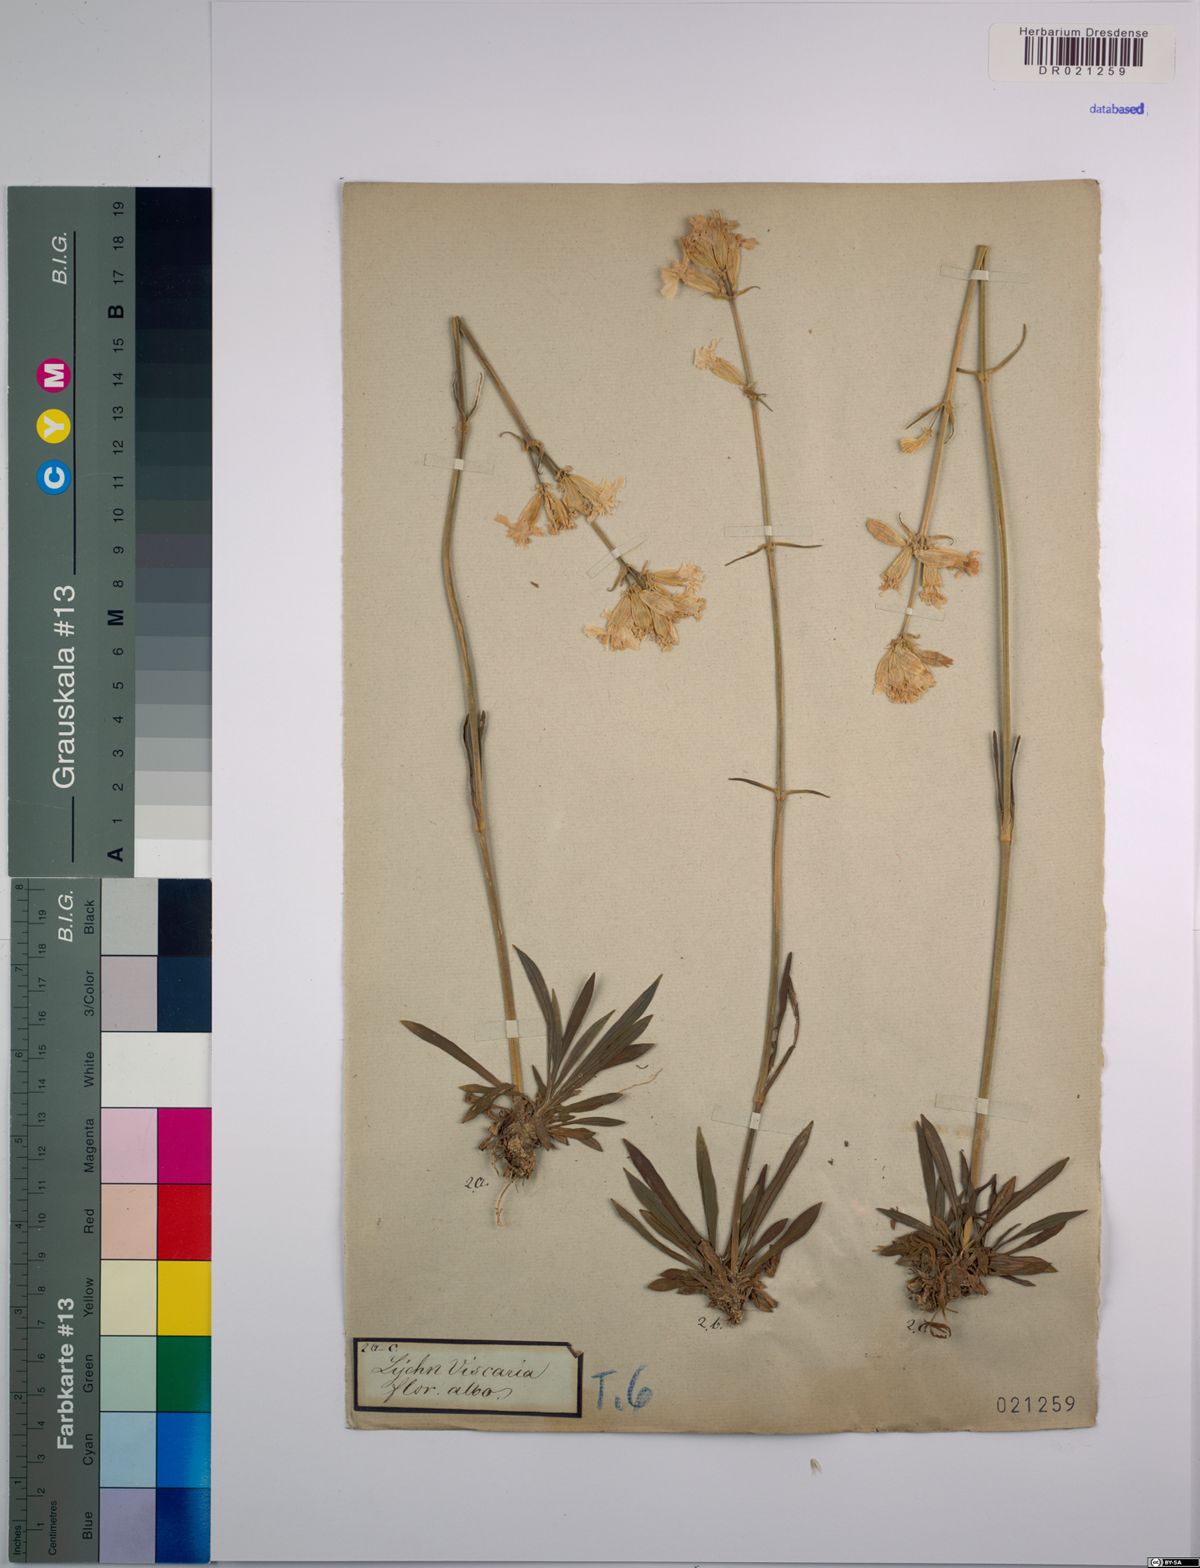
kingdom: Plantae
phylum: Tracheophyta
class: Magnoliopsida
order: Caryophyllales
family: Caryophyllaceae
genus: Viscaria
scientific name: Viscaria vulgaris
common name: Clammy campion
